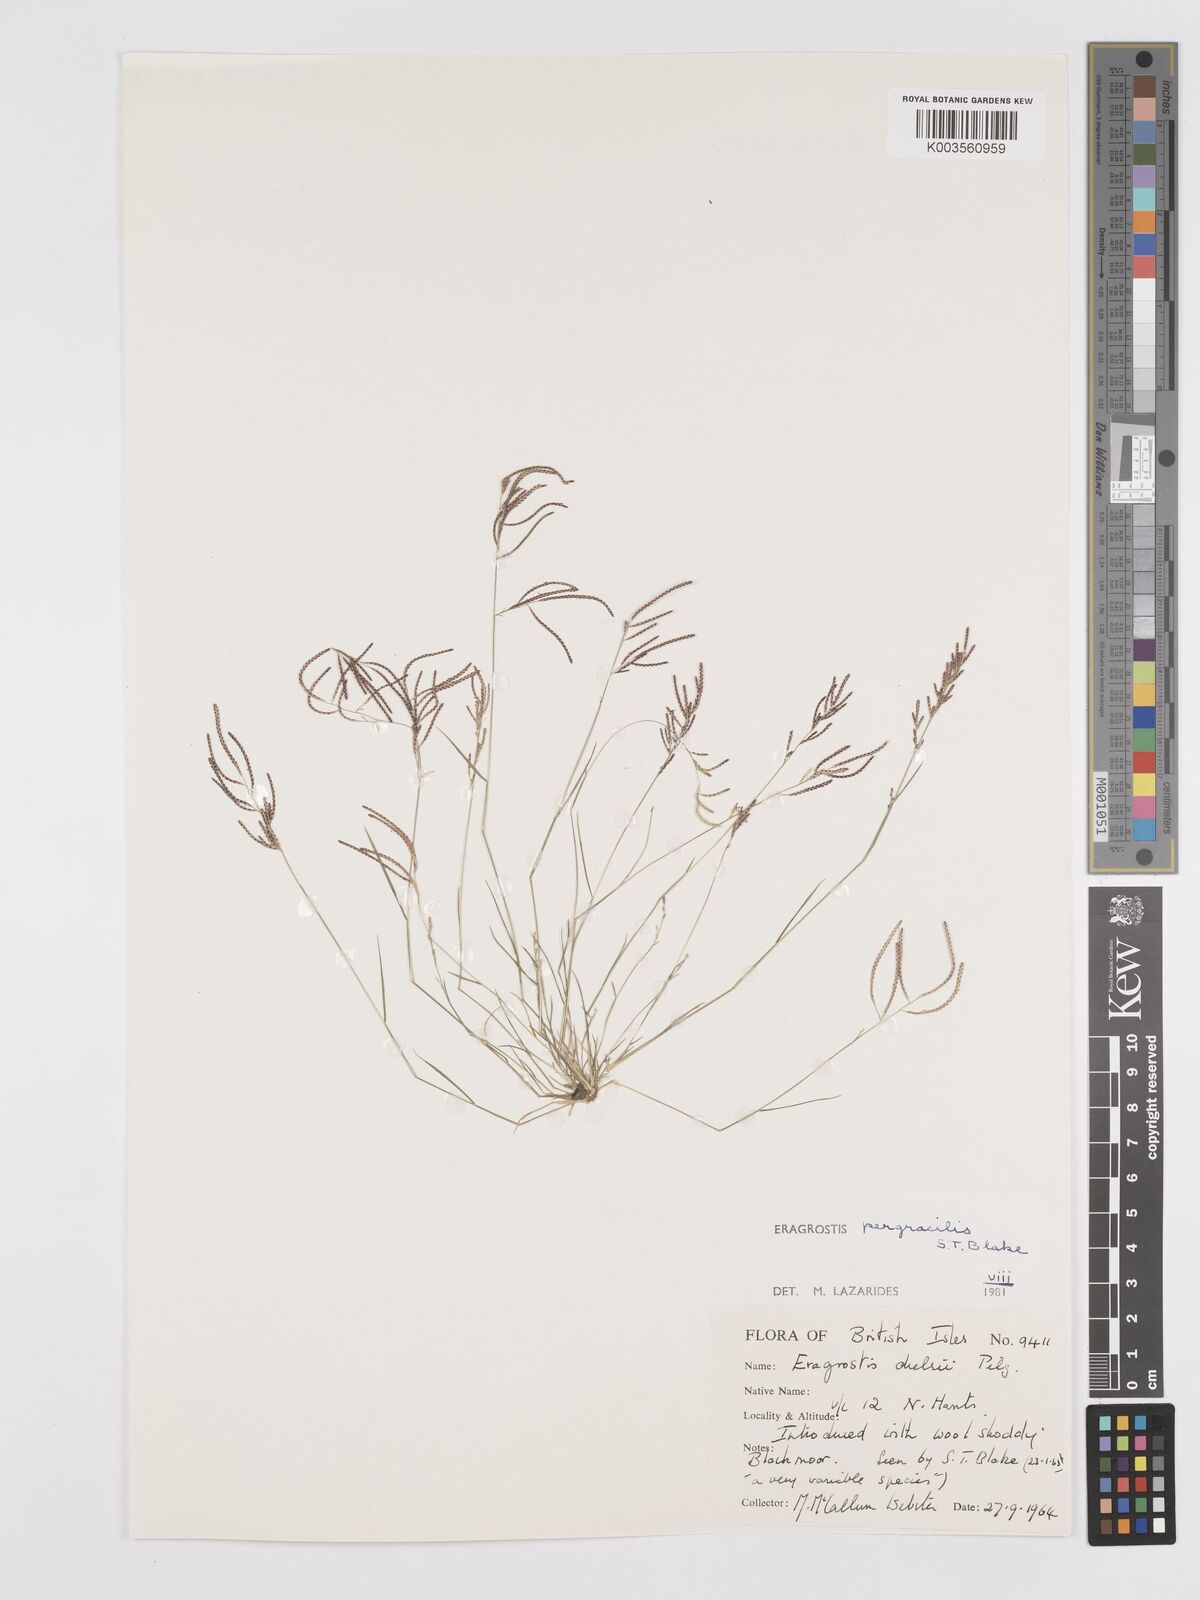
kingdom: Plantae
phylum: Tracheophyta
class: Liliopsida
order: Poales
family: Poaceae
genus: Eragrostis
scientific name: Eragrostis pergracilis
